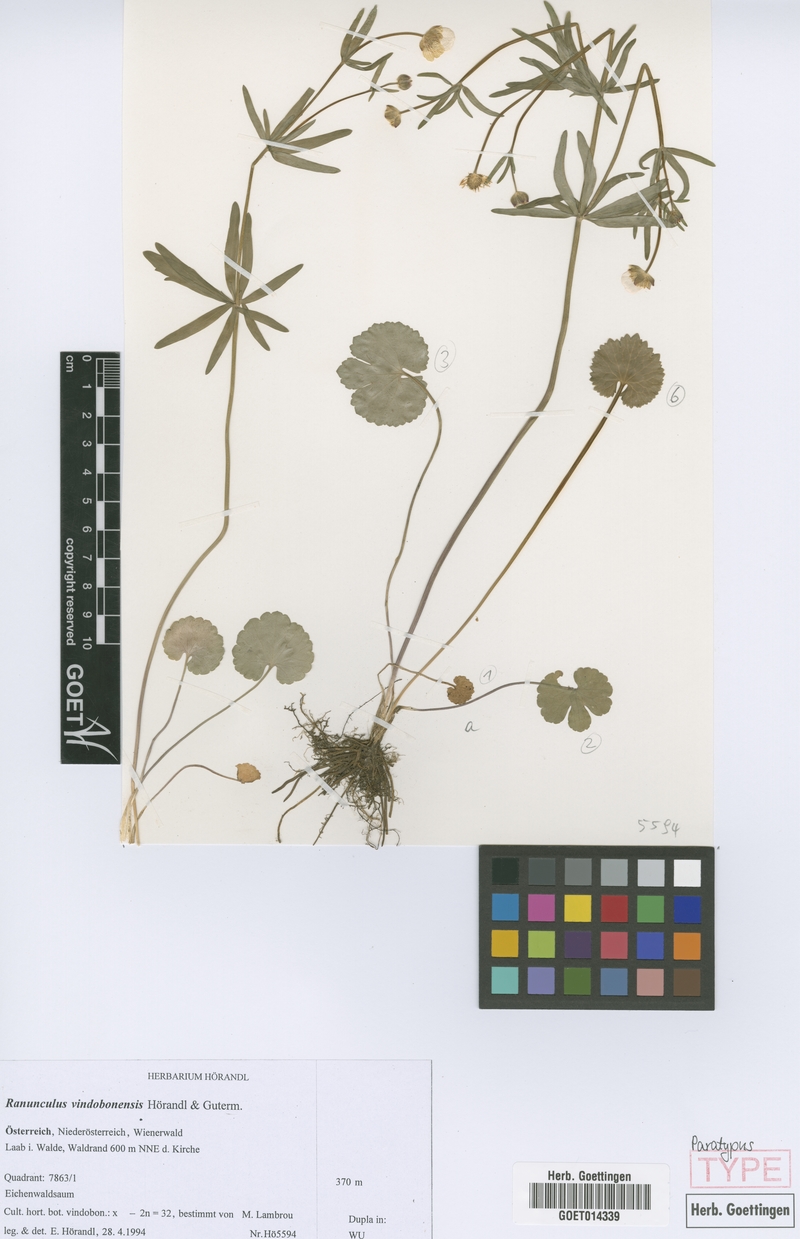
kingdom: Plantae
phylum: Tracheophyta
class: Magnoliopsida
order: Ranunculales
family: Ranunculaceae
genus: Ranunculus
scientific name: Ranunculus vindobonensis
